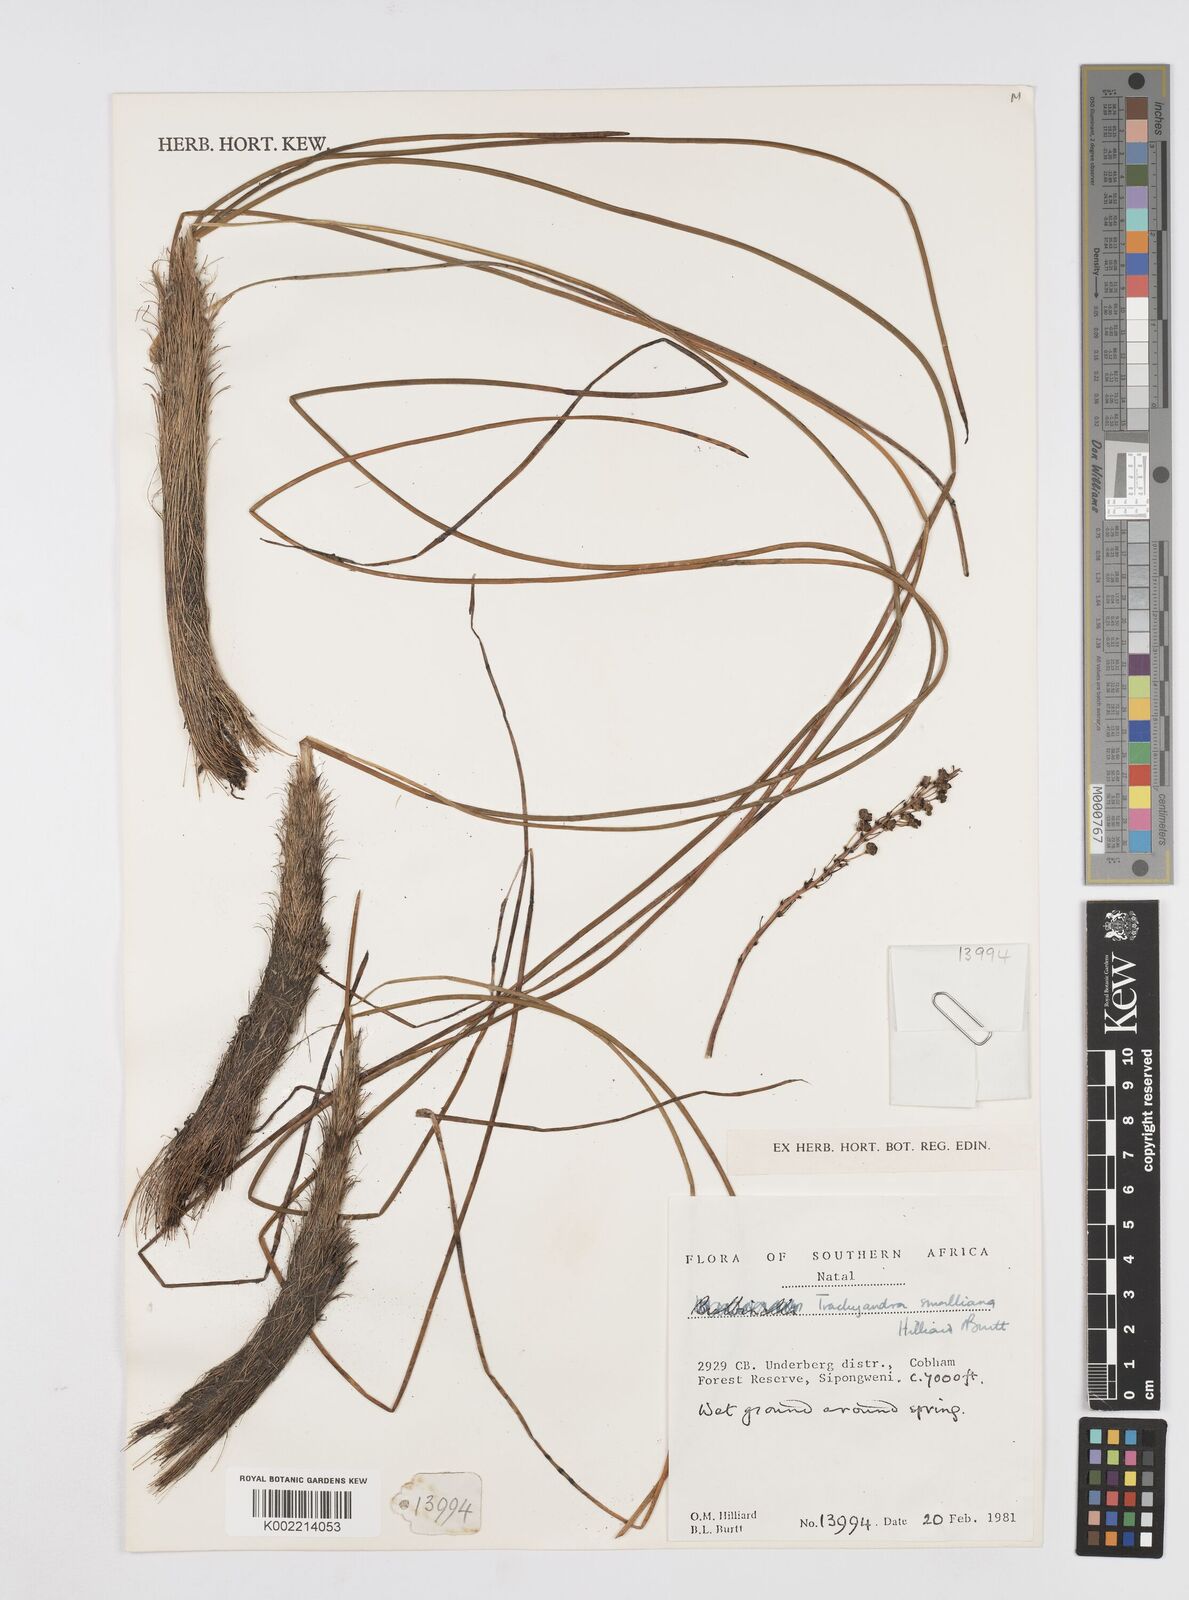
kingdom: Plantae
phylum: Tracheophyta
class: Liliopsida
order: Asparagales
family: Asphodelaceae
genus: Trachyandra
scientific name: Trachyandra smalliana
